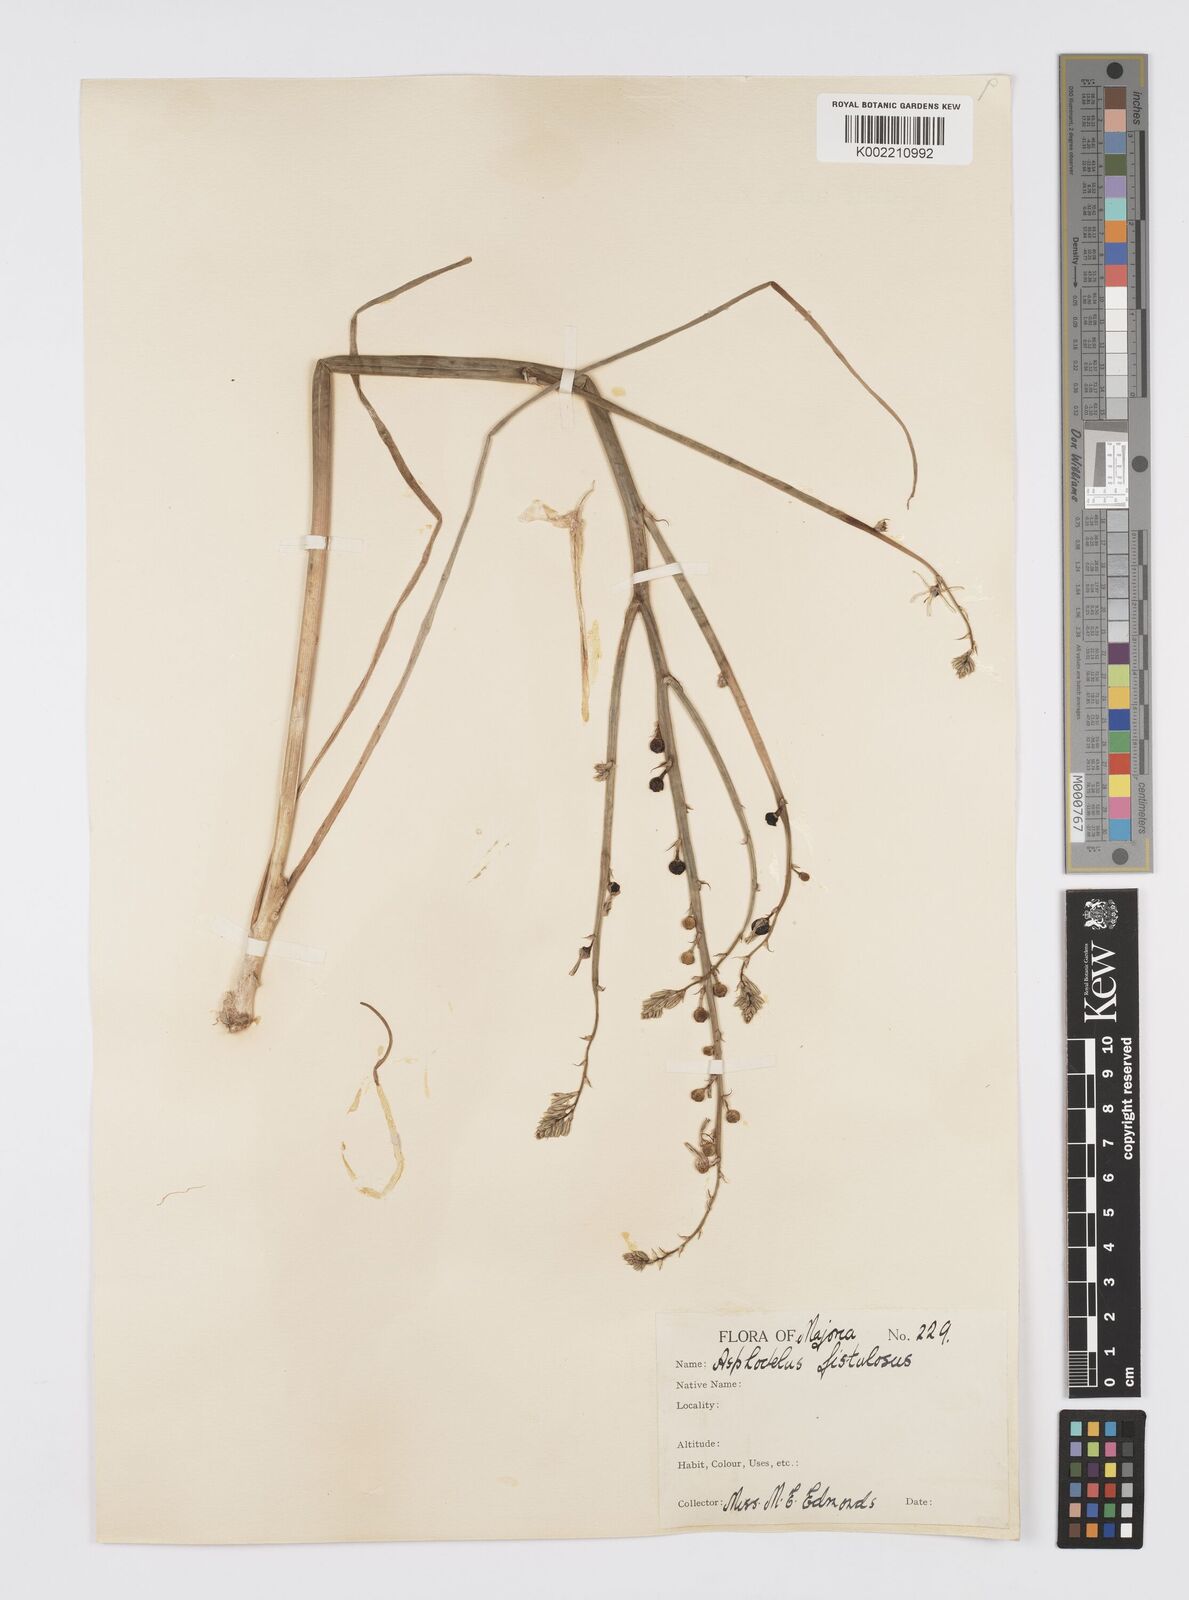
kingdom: Plantae
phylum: Tracheophyta
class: Liliopsida
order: Asparagales
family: Asphodelaceae
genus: Asphodelus
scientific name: Asphodelus fistulosus
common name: Onionweed
